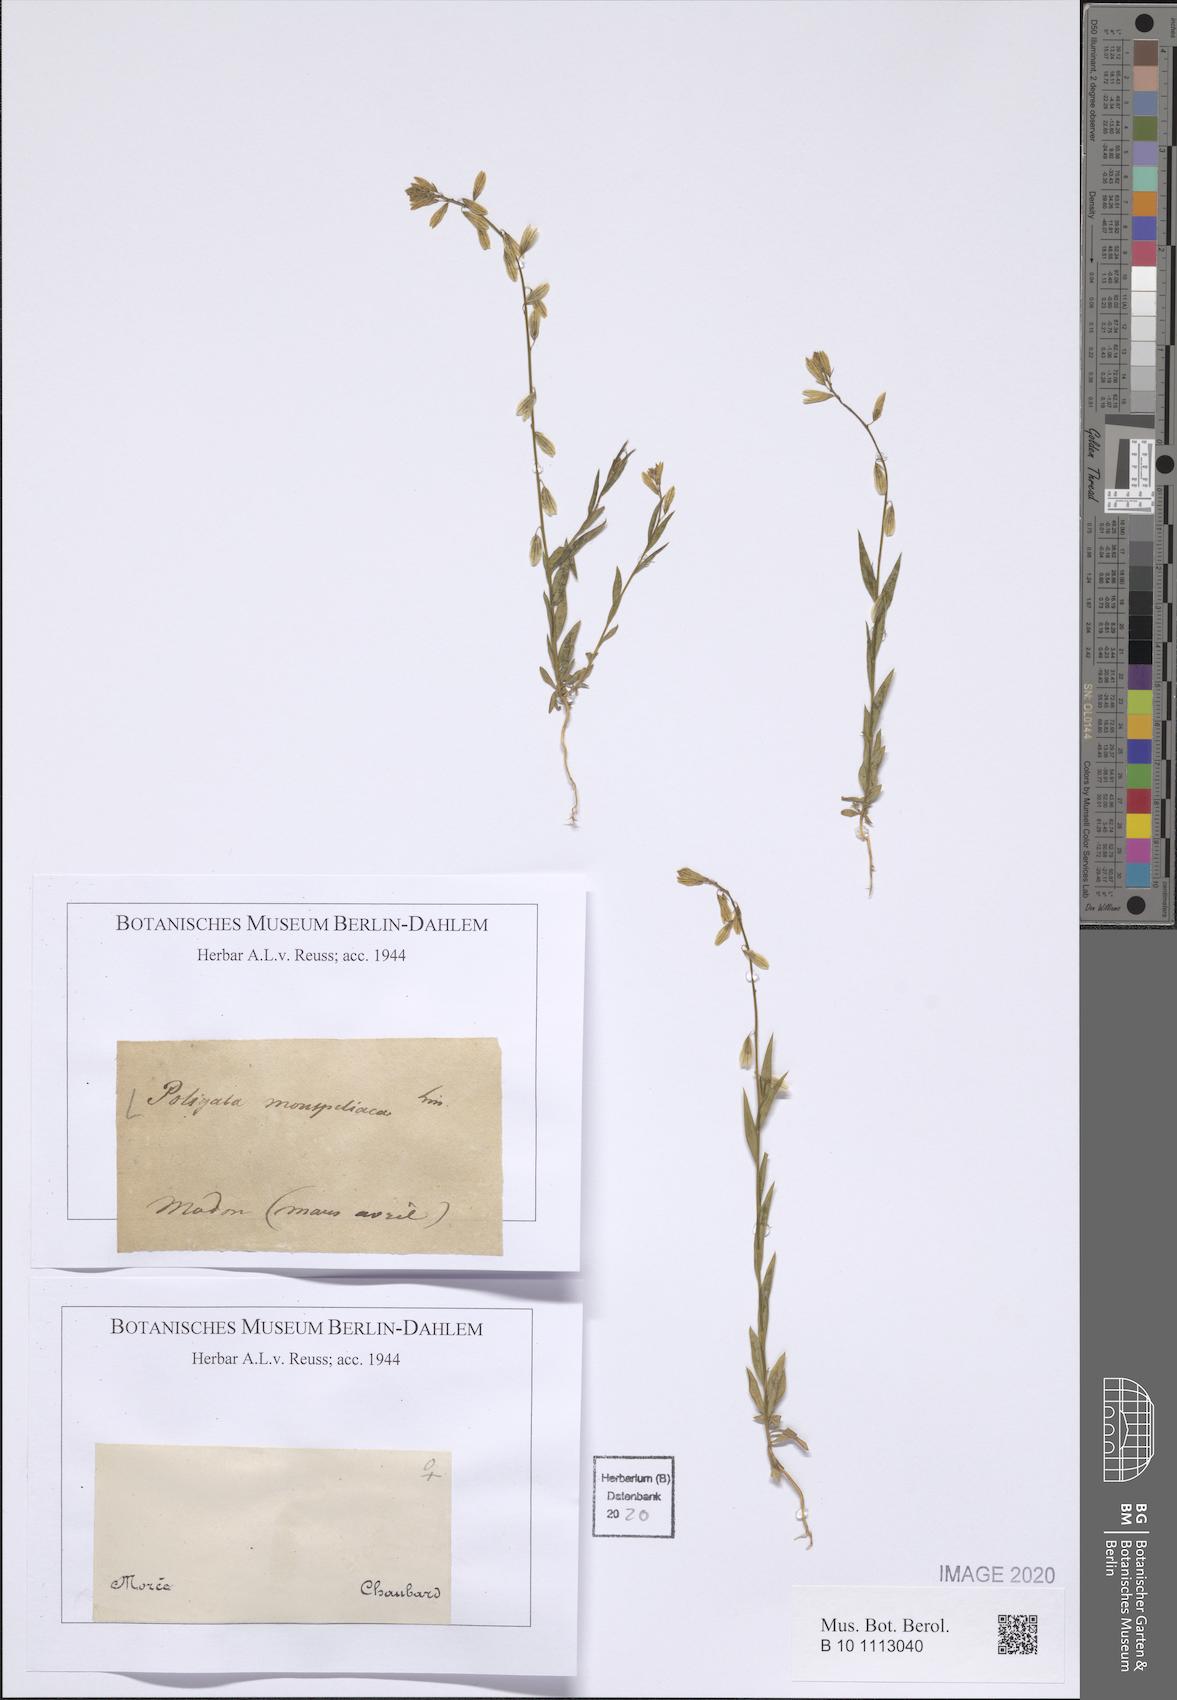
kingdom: Plantae
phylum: Tracheophyta
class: Magnoliopsida
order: Fabales
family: Polygalaceae
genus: Polygala
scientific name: Polygala monspeliaca
